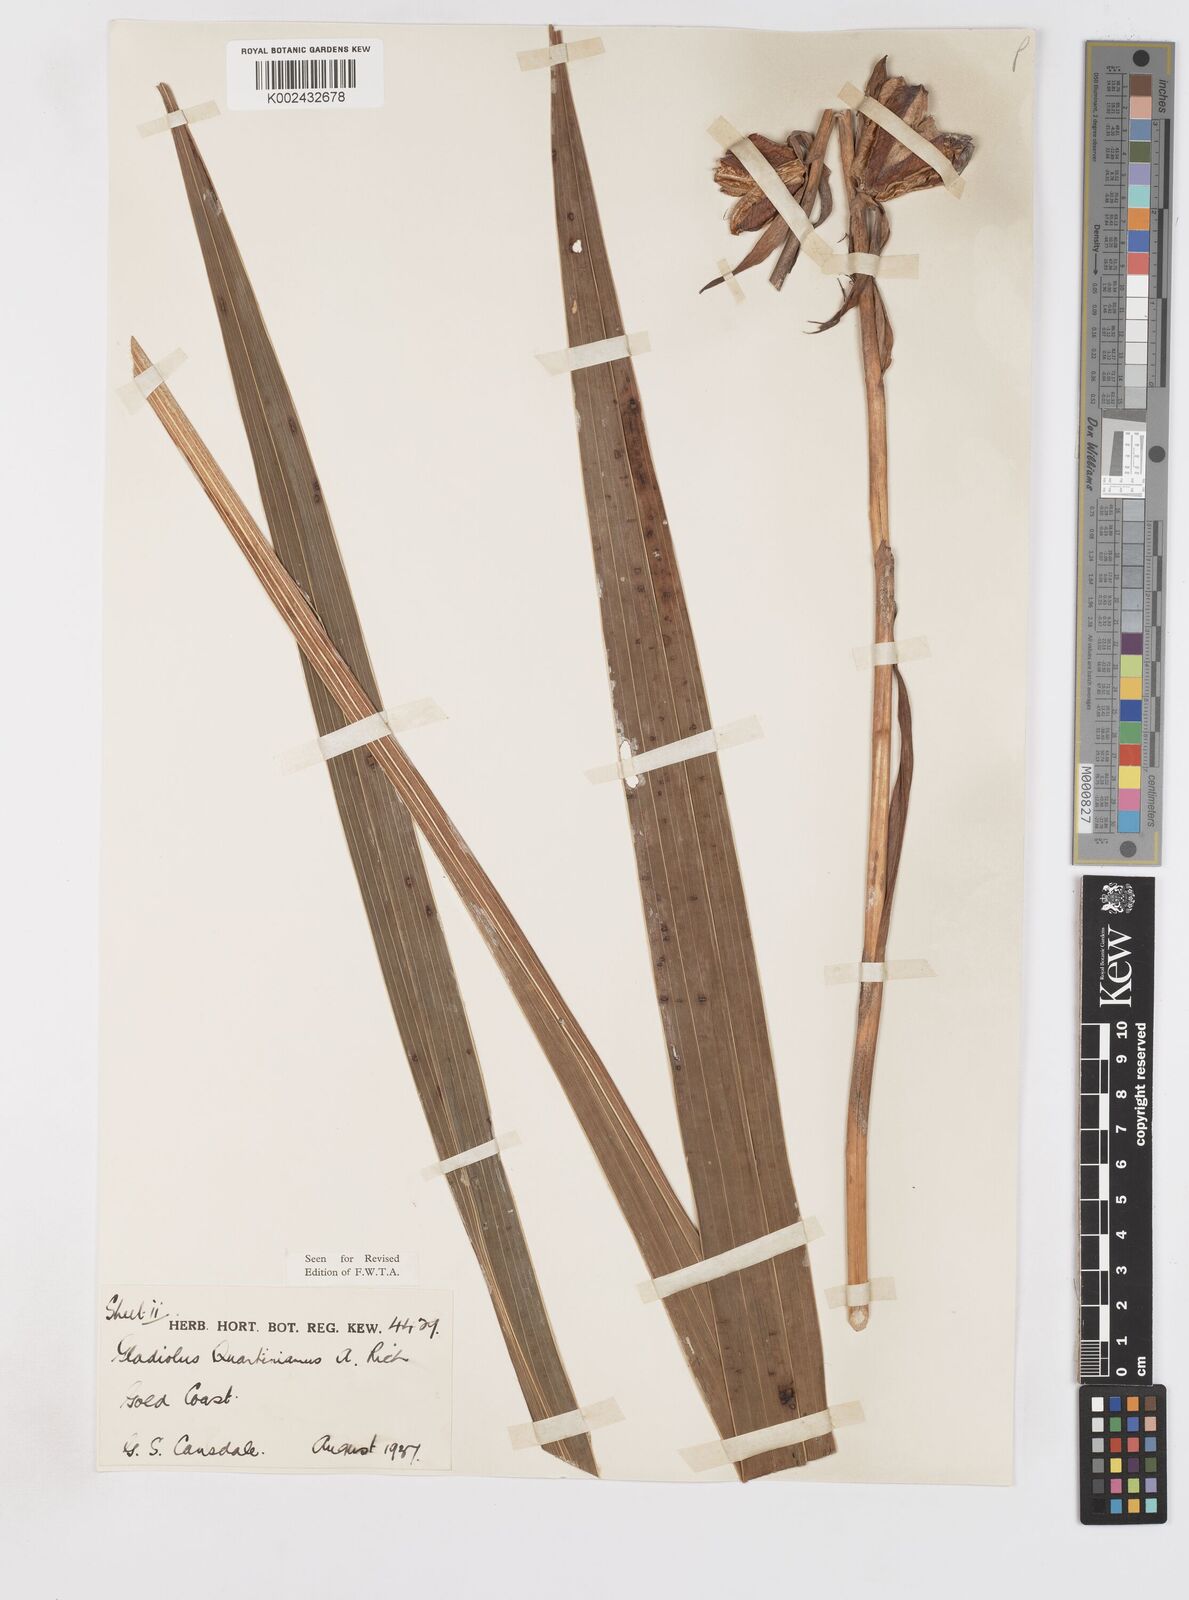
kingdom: Plantae
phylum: Tracheophyta
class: Liliopsida
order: Asparagales
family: Iridaceae
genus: Gladiolus
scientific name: Gladiolus dalenii
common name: Cornflag
